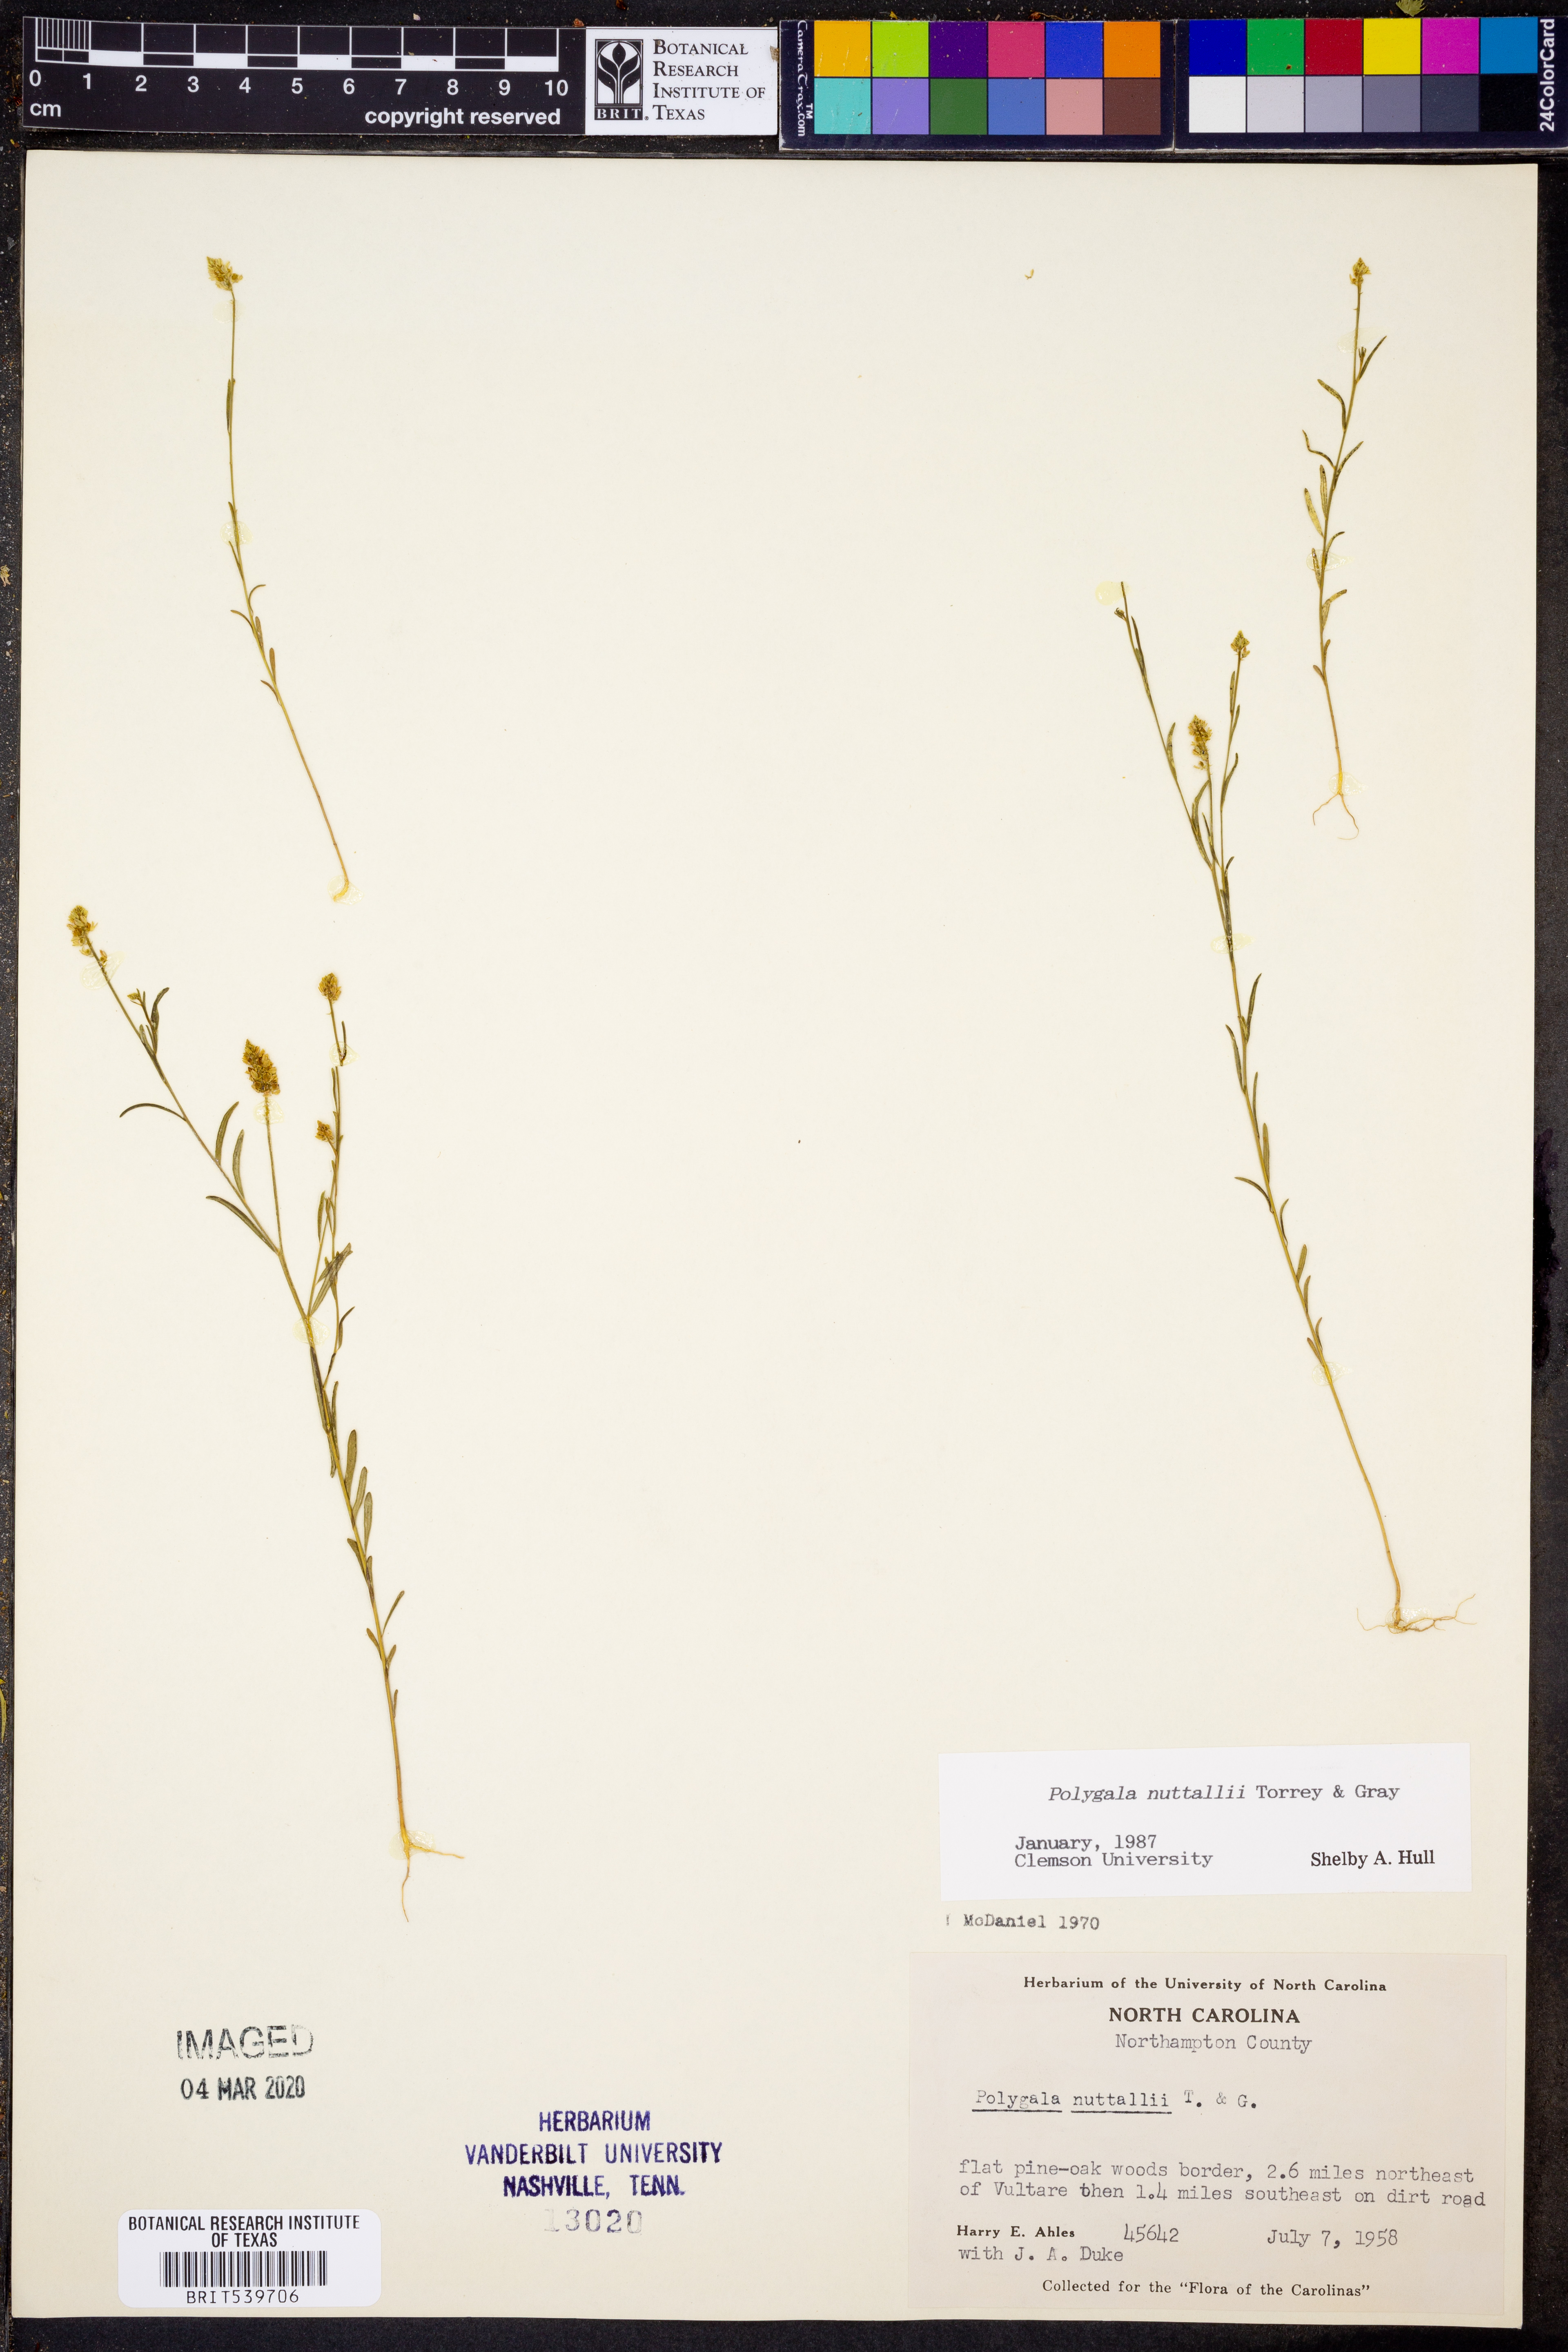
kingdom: Plantae
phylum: Tracheophyta
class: Magnoliopsida
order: Fabales
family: Polygalaceae
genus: Polygala
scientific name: Polygala nuttallii
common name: Nuttall's milkwort
